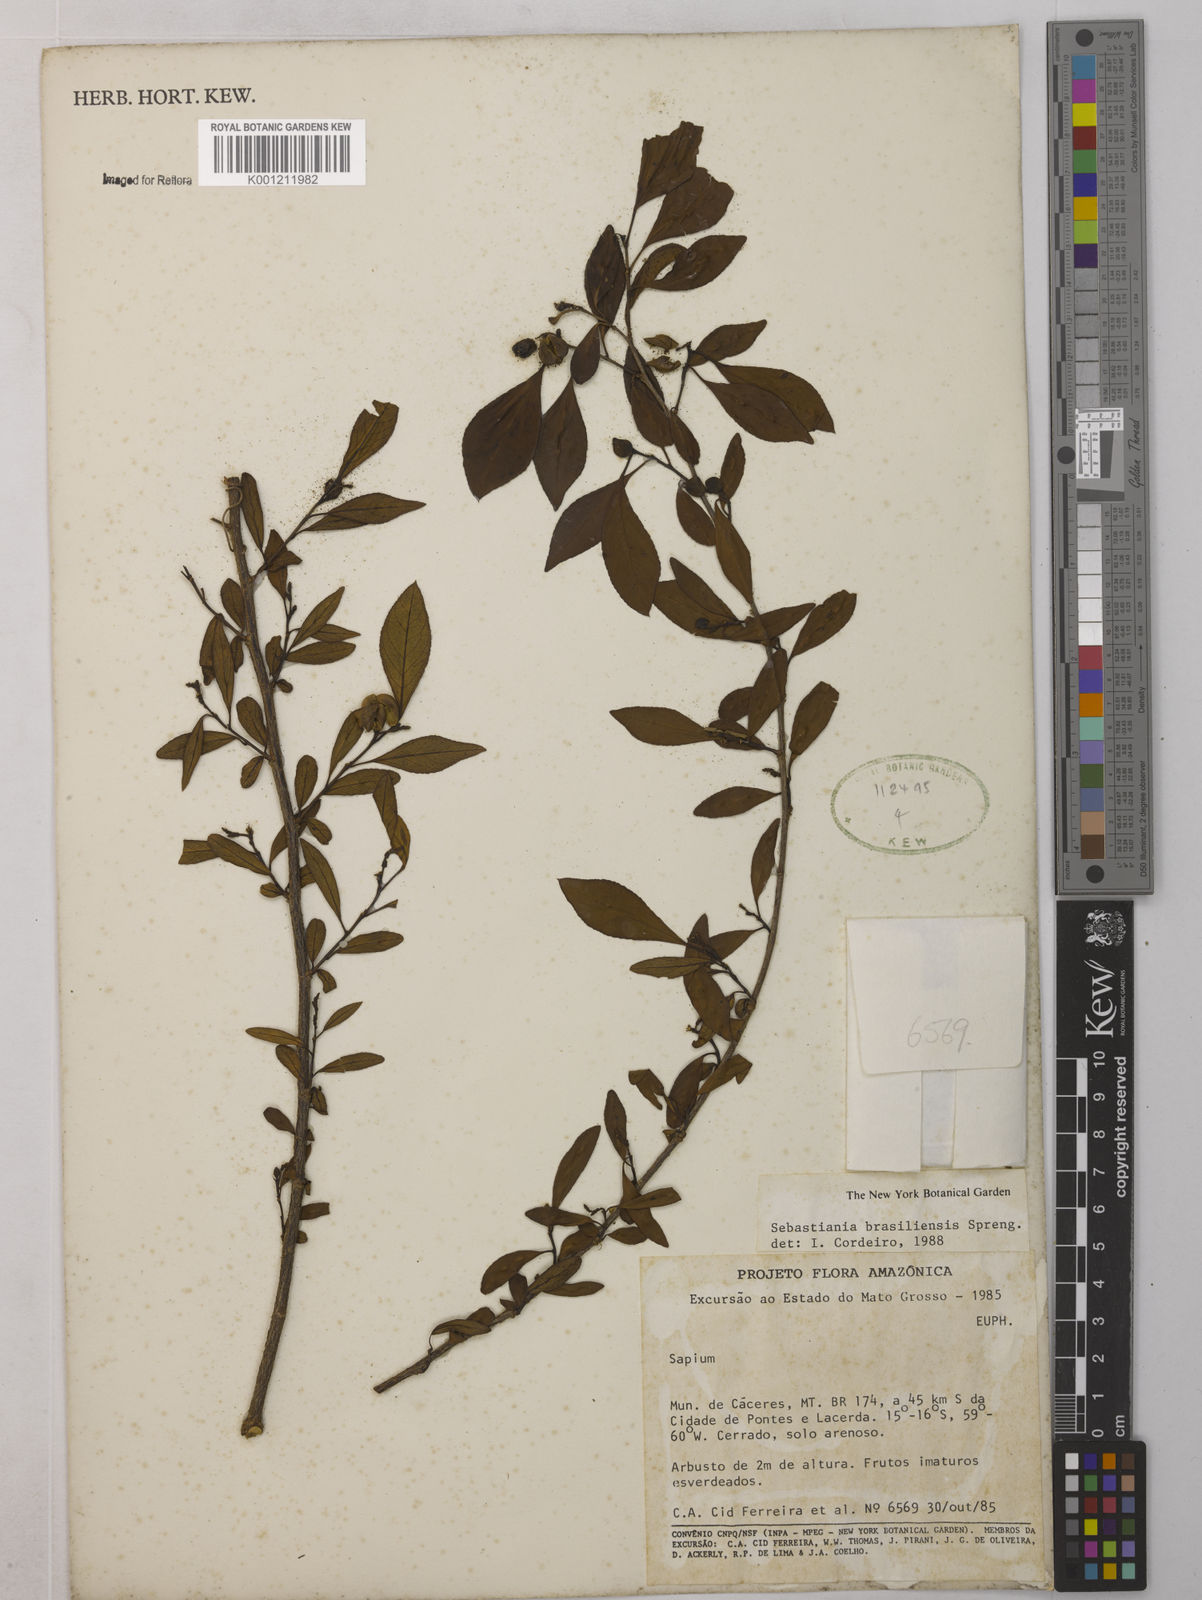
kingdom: Plantae
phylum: Tracheophyta
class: Magnoliopsida
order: Malpighiales
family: Euphorbiaceae
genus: Sebastiania
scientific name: Sebastiania brasiliensis
